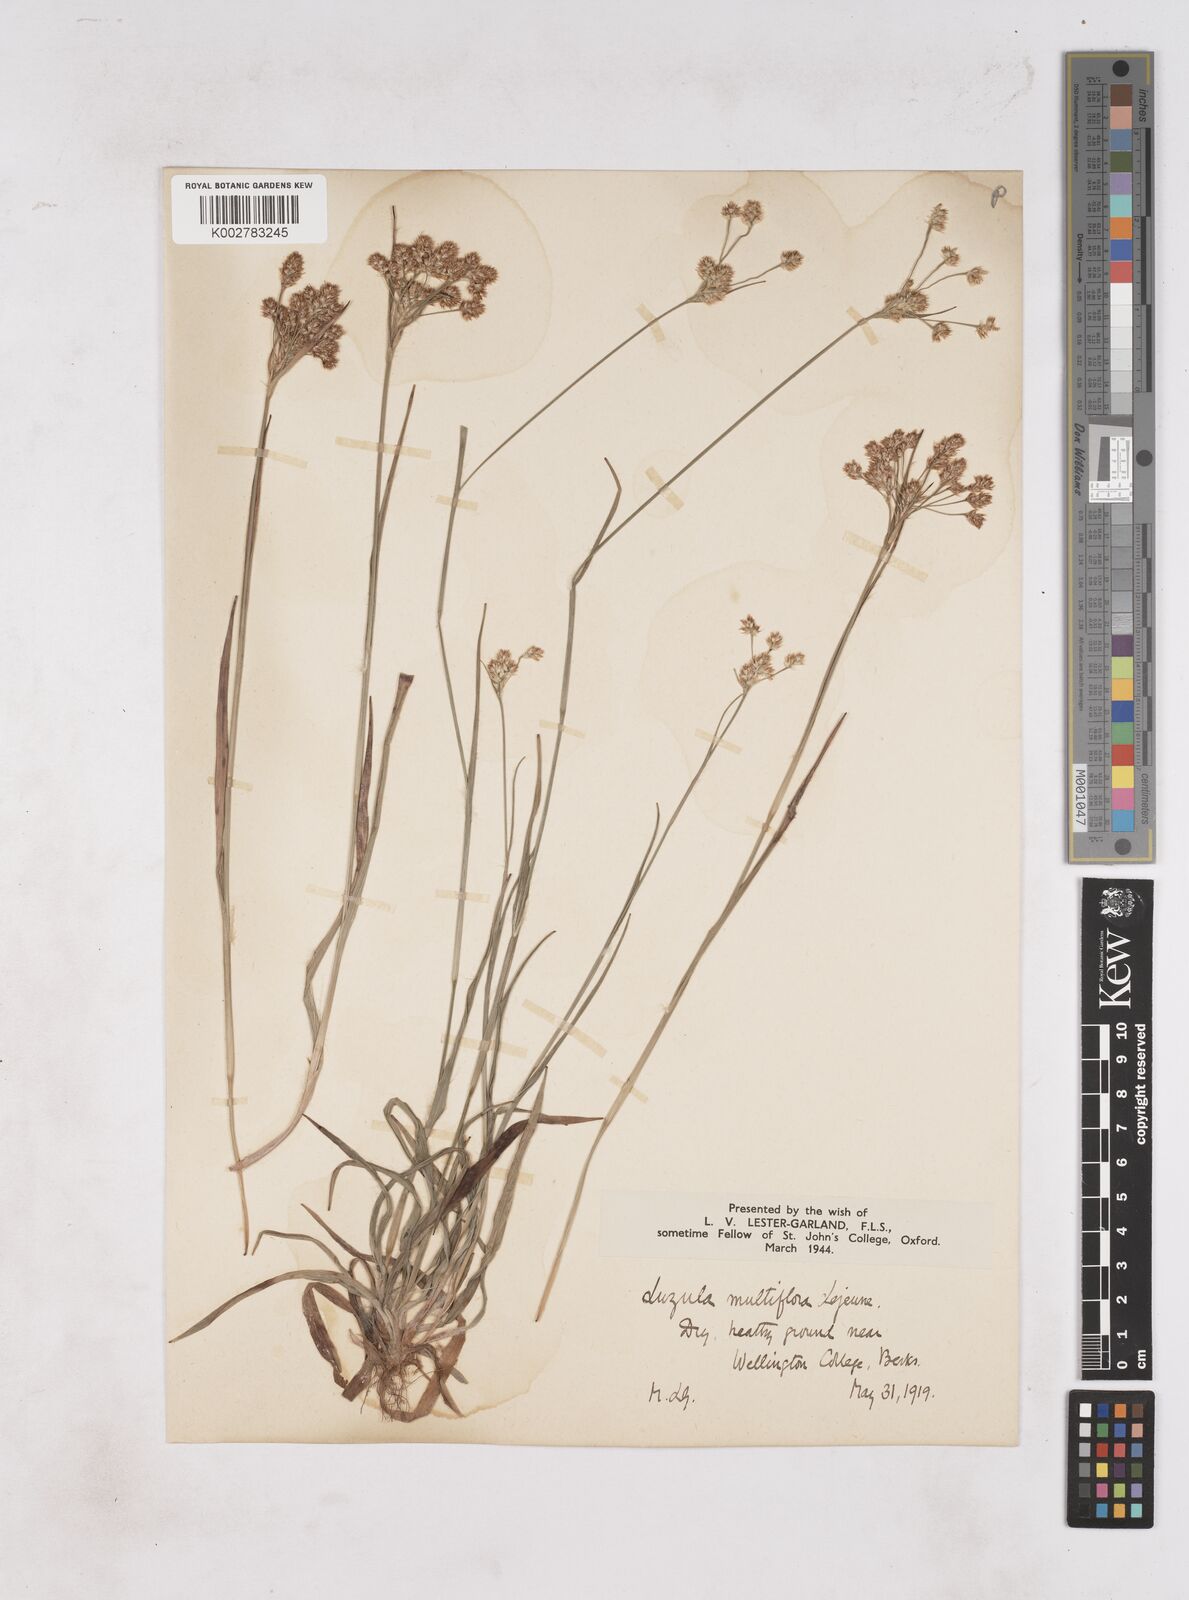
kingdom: Plantae
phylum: Tracheophyta
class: Liliopsida
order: Poales
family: Juncaceae
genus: Luzula
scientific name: Luzula multiflora
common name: Heath wood-rush
